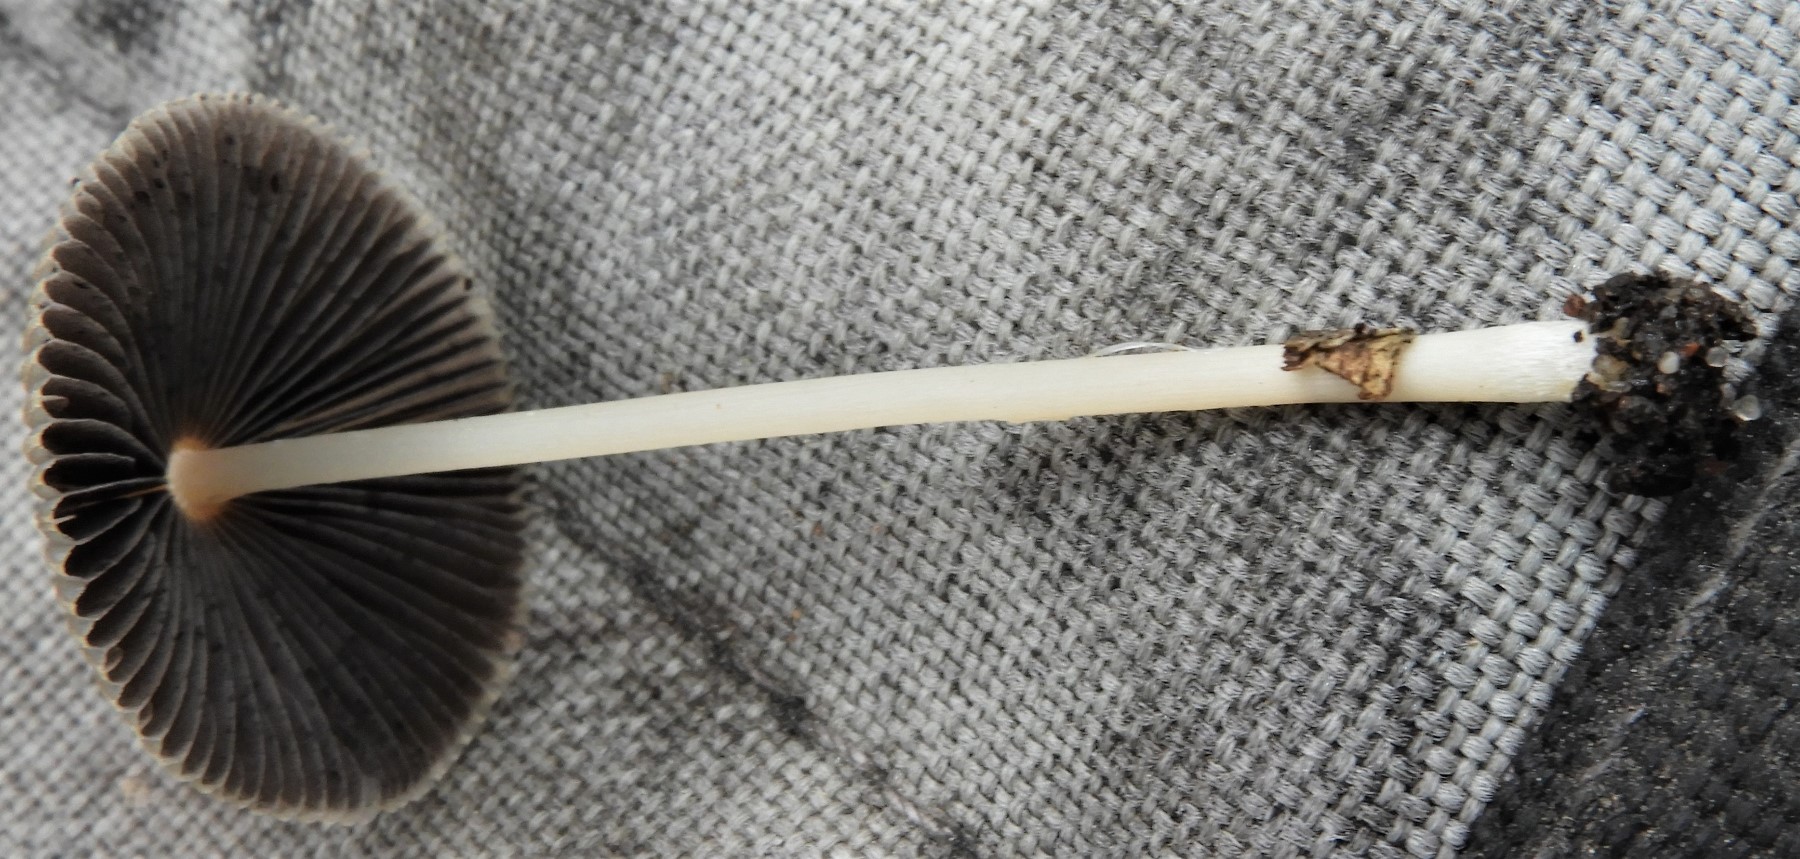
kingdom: Fungi
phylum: Basidiomycota
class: Agaricomycetes
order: Agaricales
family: Psathyrellaceae
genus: Parasola
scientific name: Parasola
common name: hjulhat
